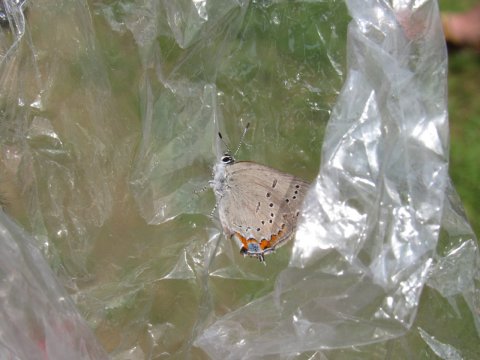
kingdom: Animalia
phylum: Arthropoda
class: Insecta
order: Lepidoptera
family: Lycaenidae
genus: Strymon
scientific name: Strymon acadica
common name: Acadian Hairstreak
